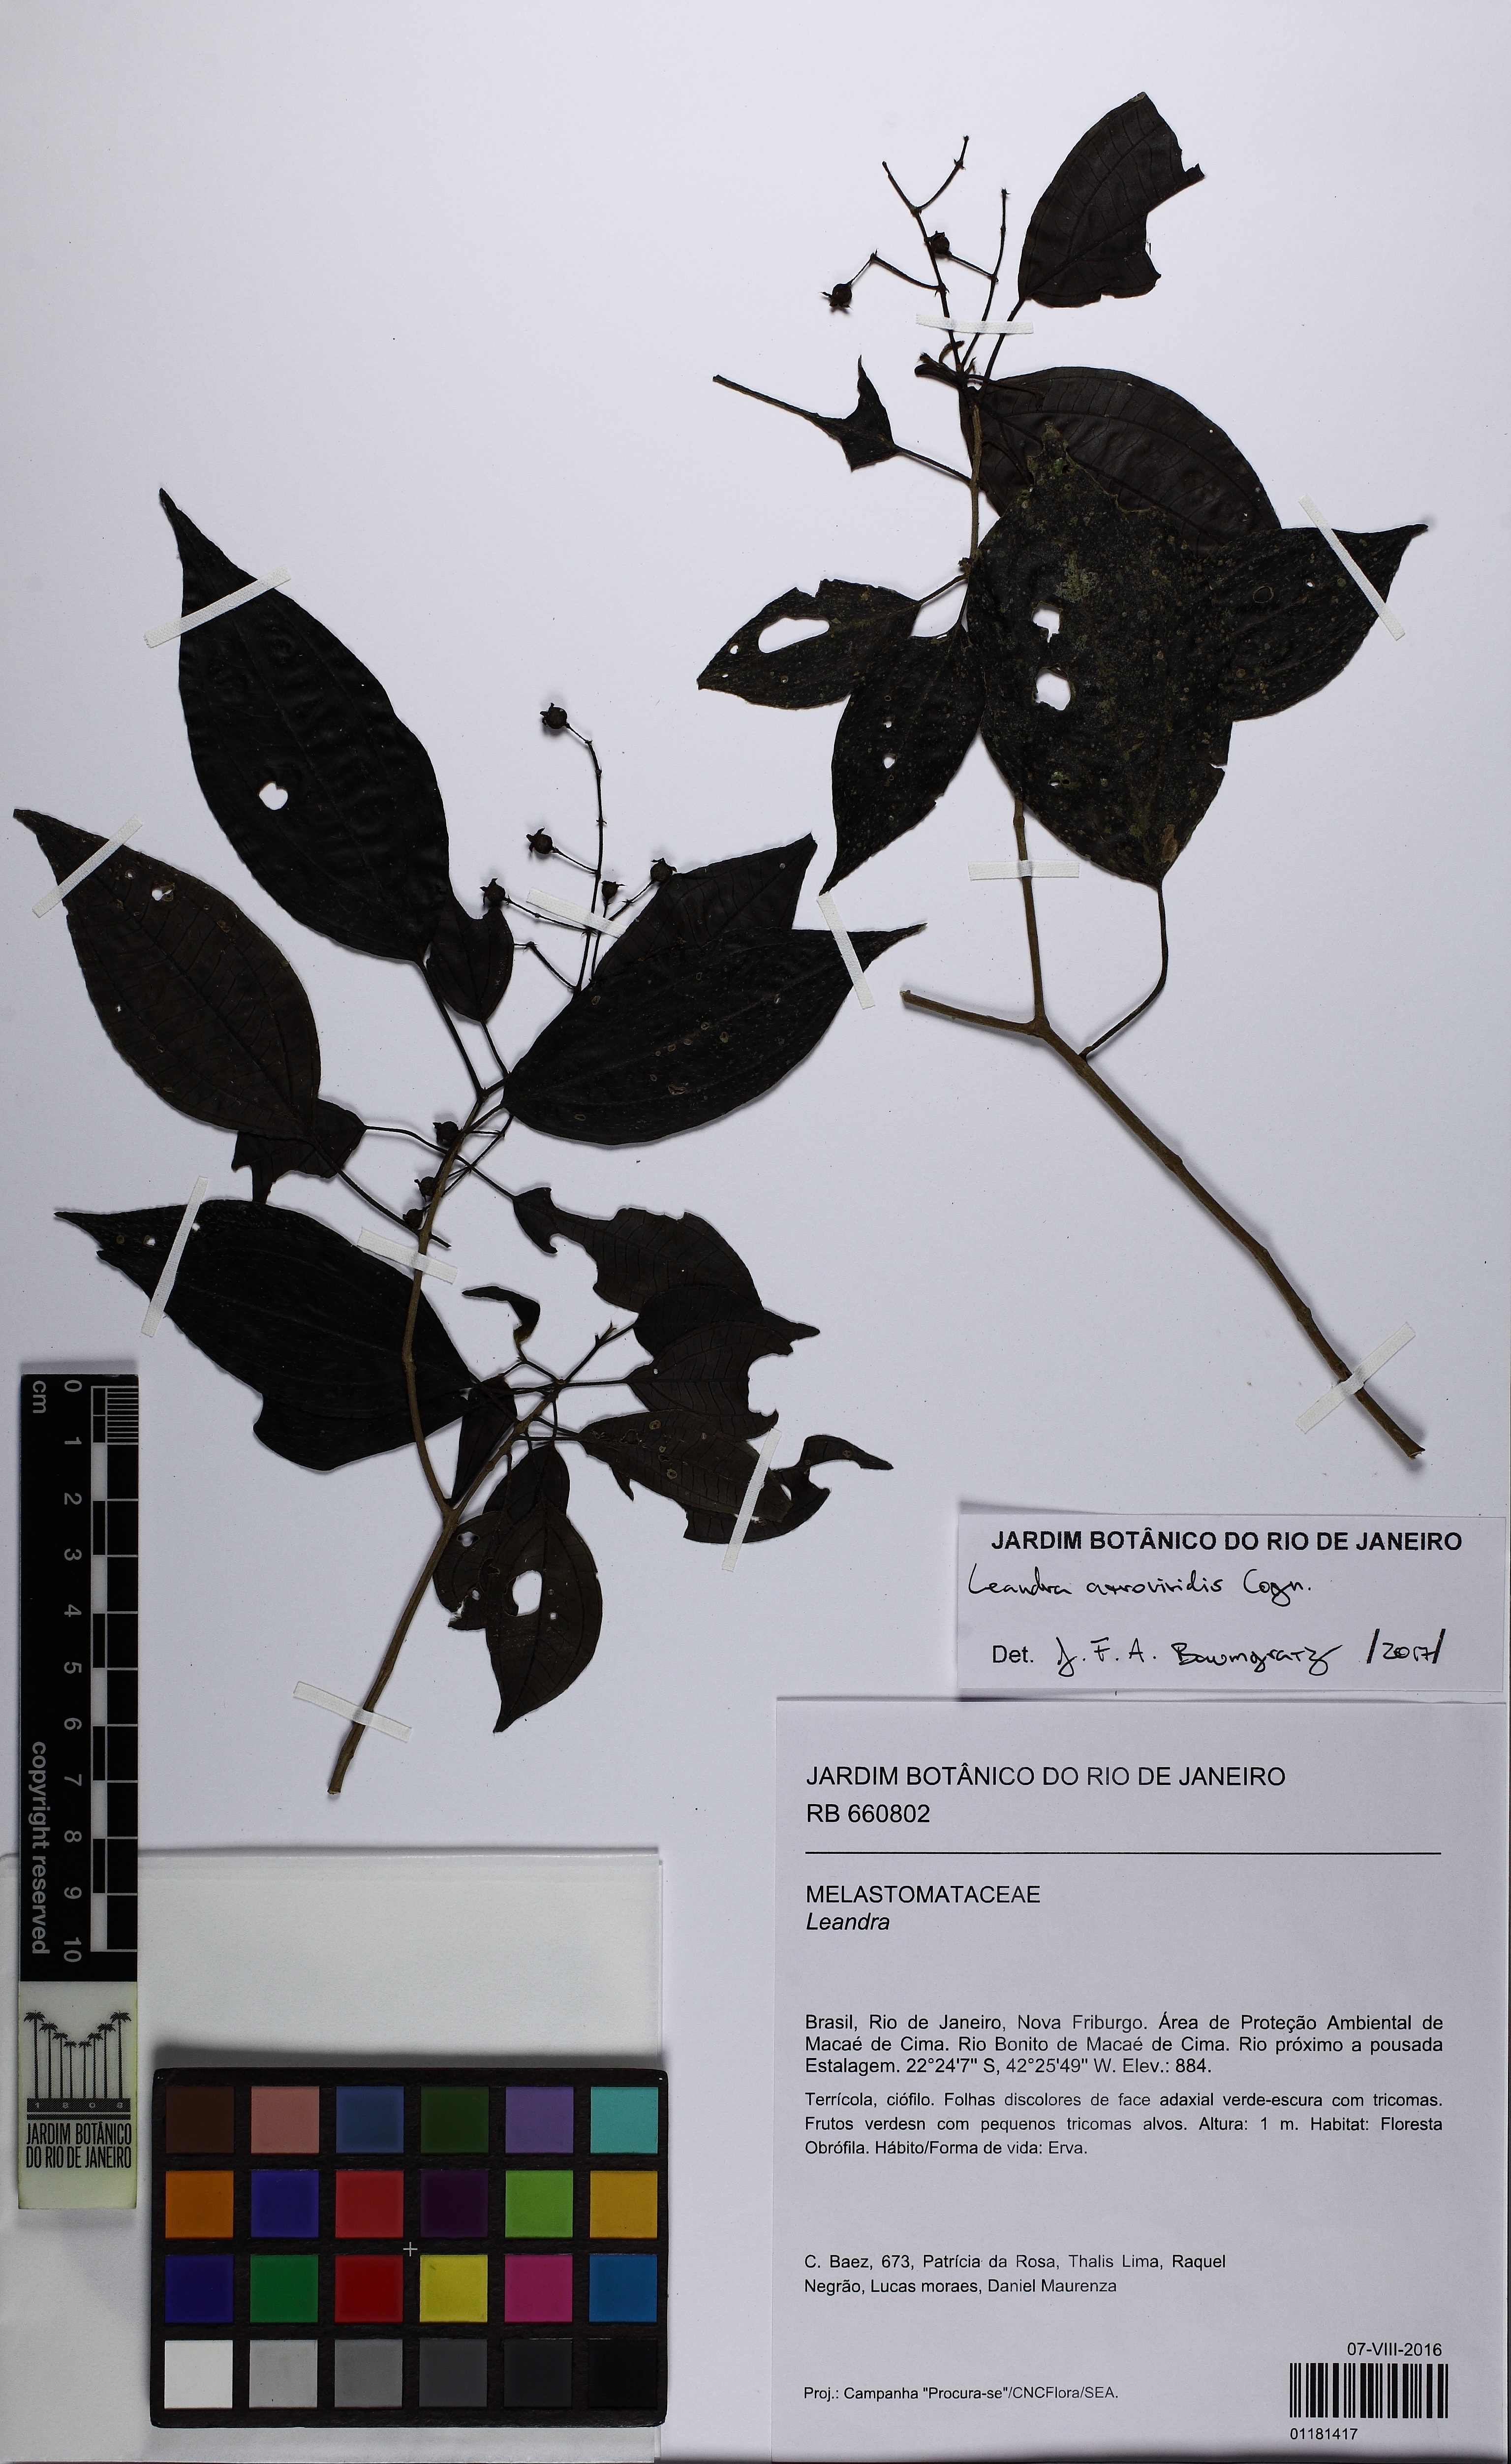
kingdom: Plantae
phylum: Tracheophyta
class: Magnoliopsida
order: Myrtales
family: Melastomataceae
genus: Miconia
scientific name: Miconia atroviridis
